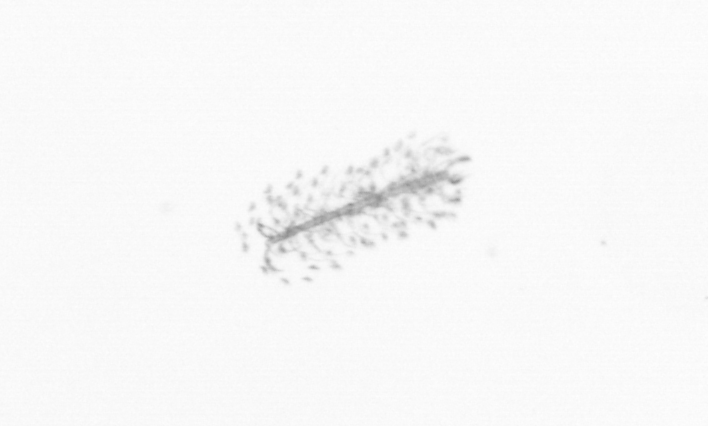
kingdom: Chromista
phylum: Ochrophyta
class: Bacillariophyceae
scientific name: Bacillariophyceae
